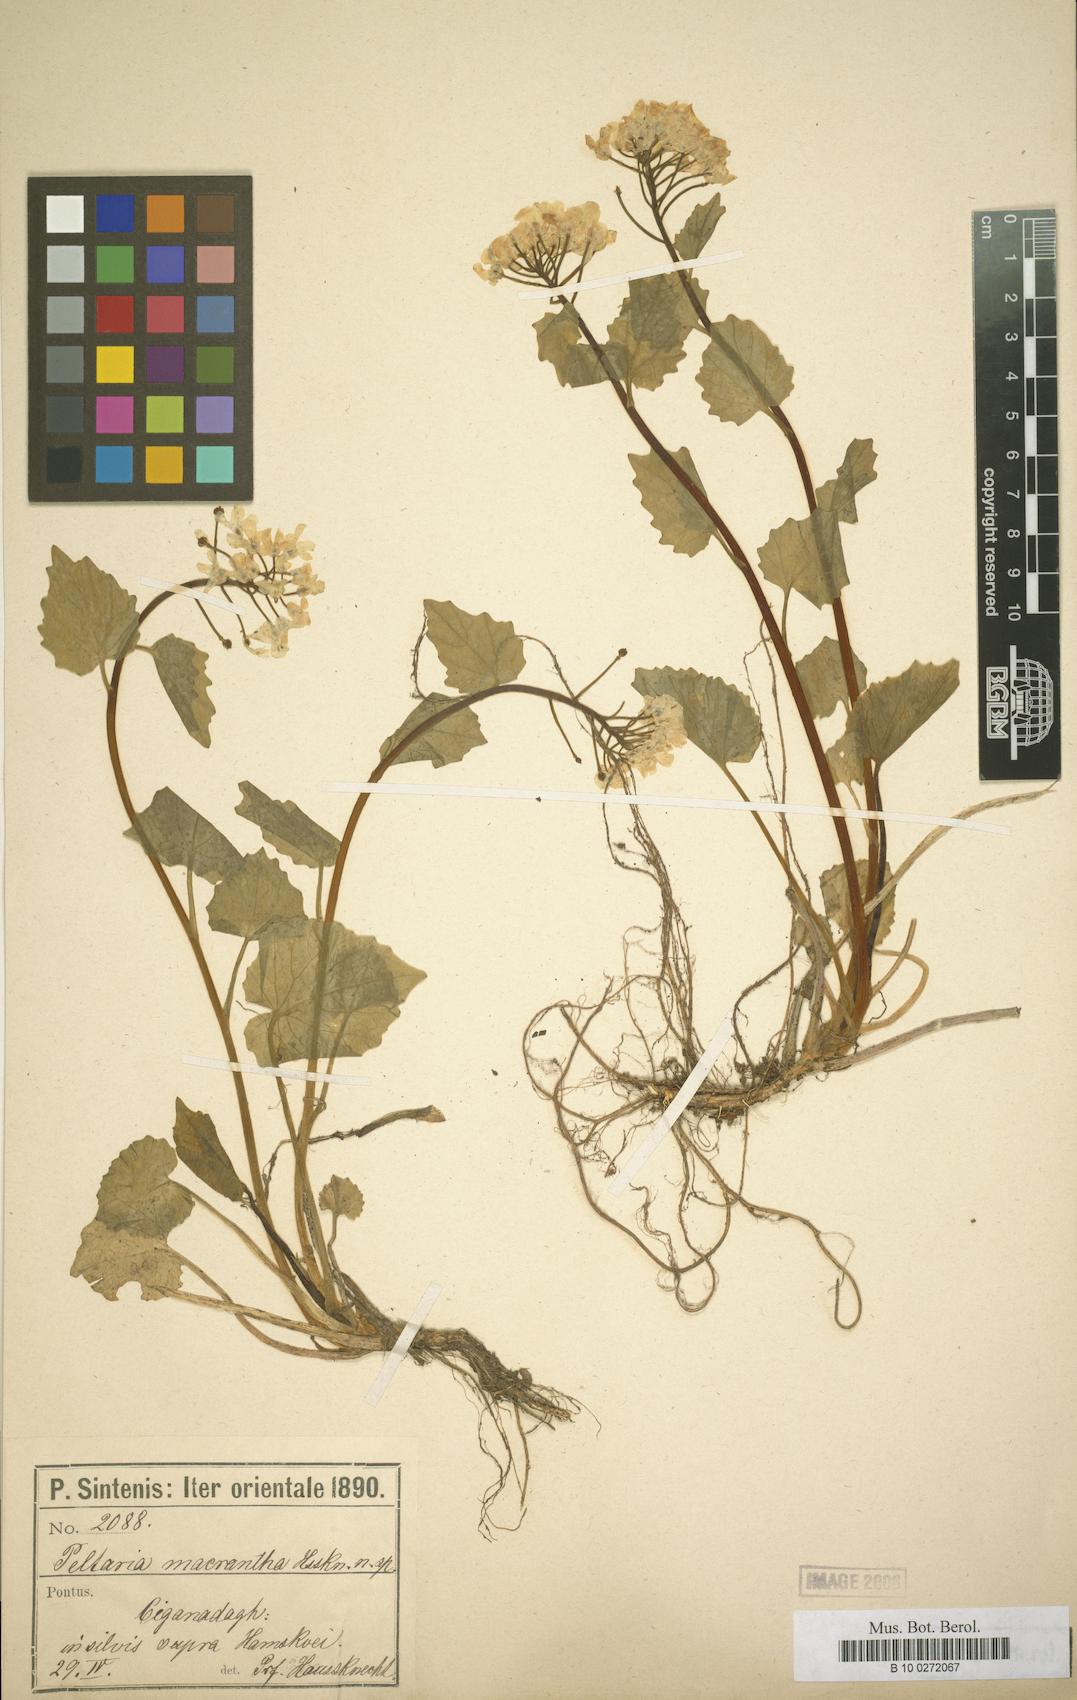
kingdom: Plantae
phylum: Tracheophyta
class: Magnoliopsida
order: Brassicales
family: Brassicaceae
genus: Peltaria
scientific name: Peltaria macrantha
